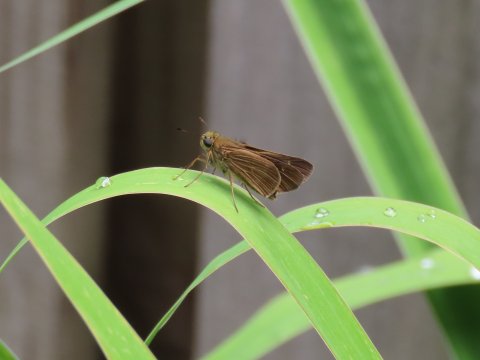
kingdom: Animalia
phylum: Arthropoda
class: Insecta
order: Lepidoptera
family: Hesperiidae
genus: Panoquina
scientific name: Panoquina ocola
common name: Ocola Skipper
